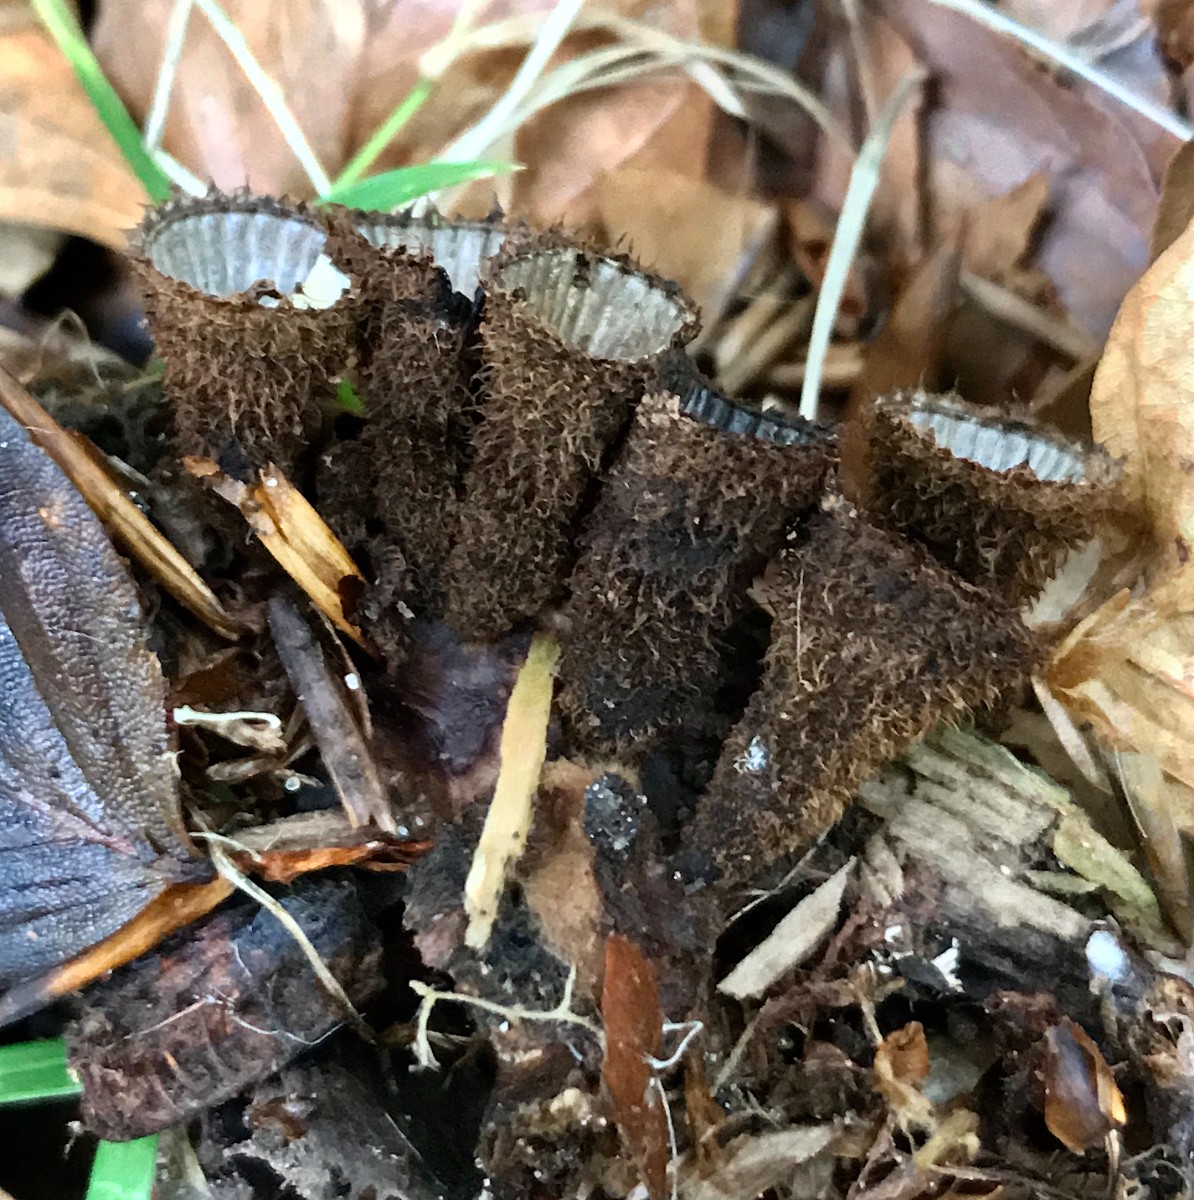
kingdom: Fungi
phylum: Basidiomycota
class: Agaricomycetes
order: Agaricales
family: Agaricaceae
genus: Cyathus
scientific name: Cyathus striatus
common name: stribet redesvamp
